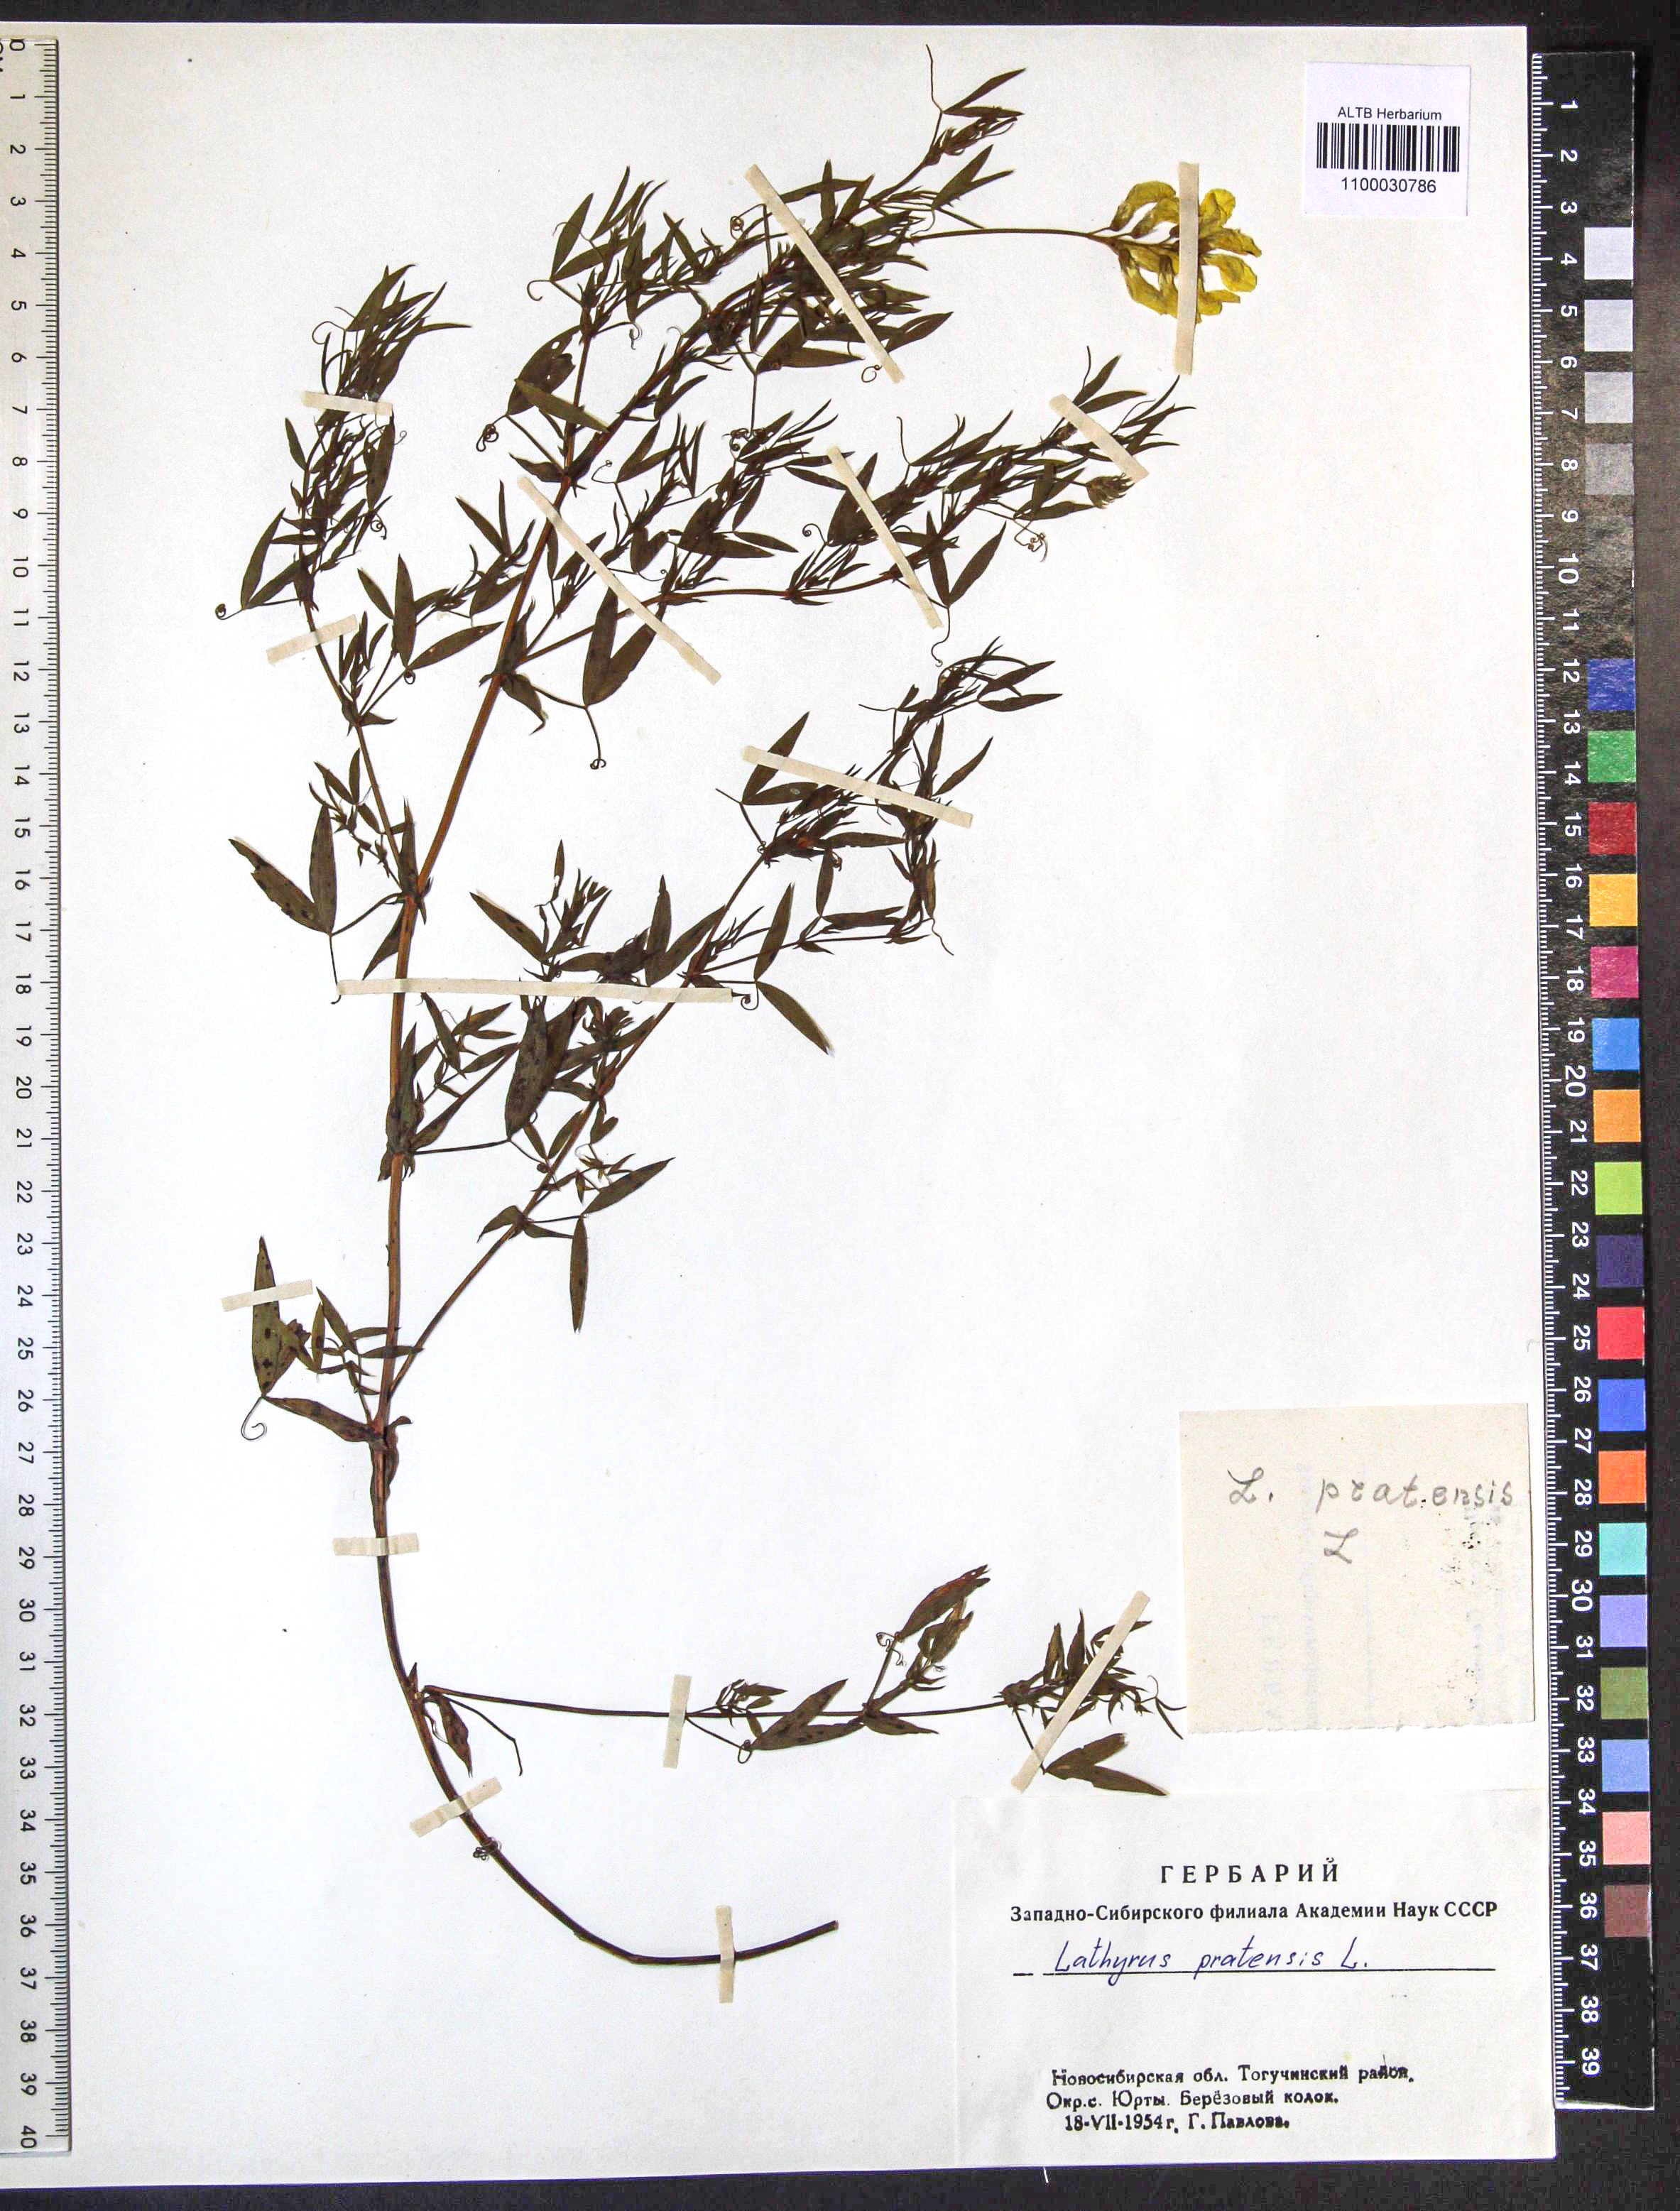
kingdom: Plantae
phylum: Tracheophyta
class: Magnoliopsida
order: Fabales
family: Fabaceae
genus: Lathyrus
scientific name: Lathyrus pratensis
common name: Meadow vetchling
